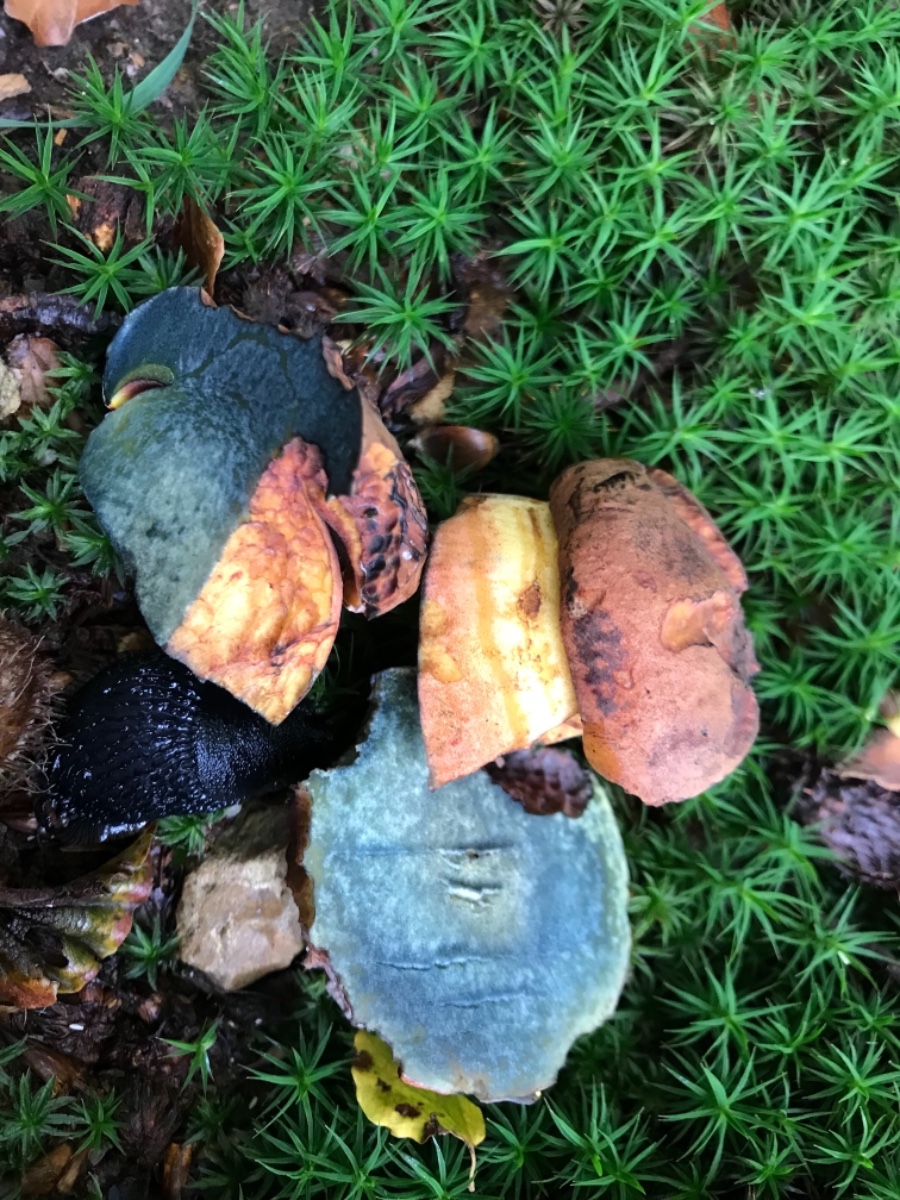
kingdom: Fungi
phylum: Basidiomycota
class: Agaricomycetes
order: Boletales
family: Boletaceae
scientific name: Boletaceae
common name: rørhatfamilien
